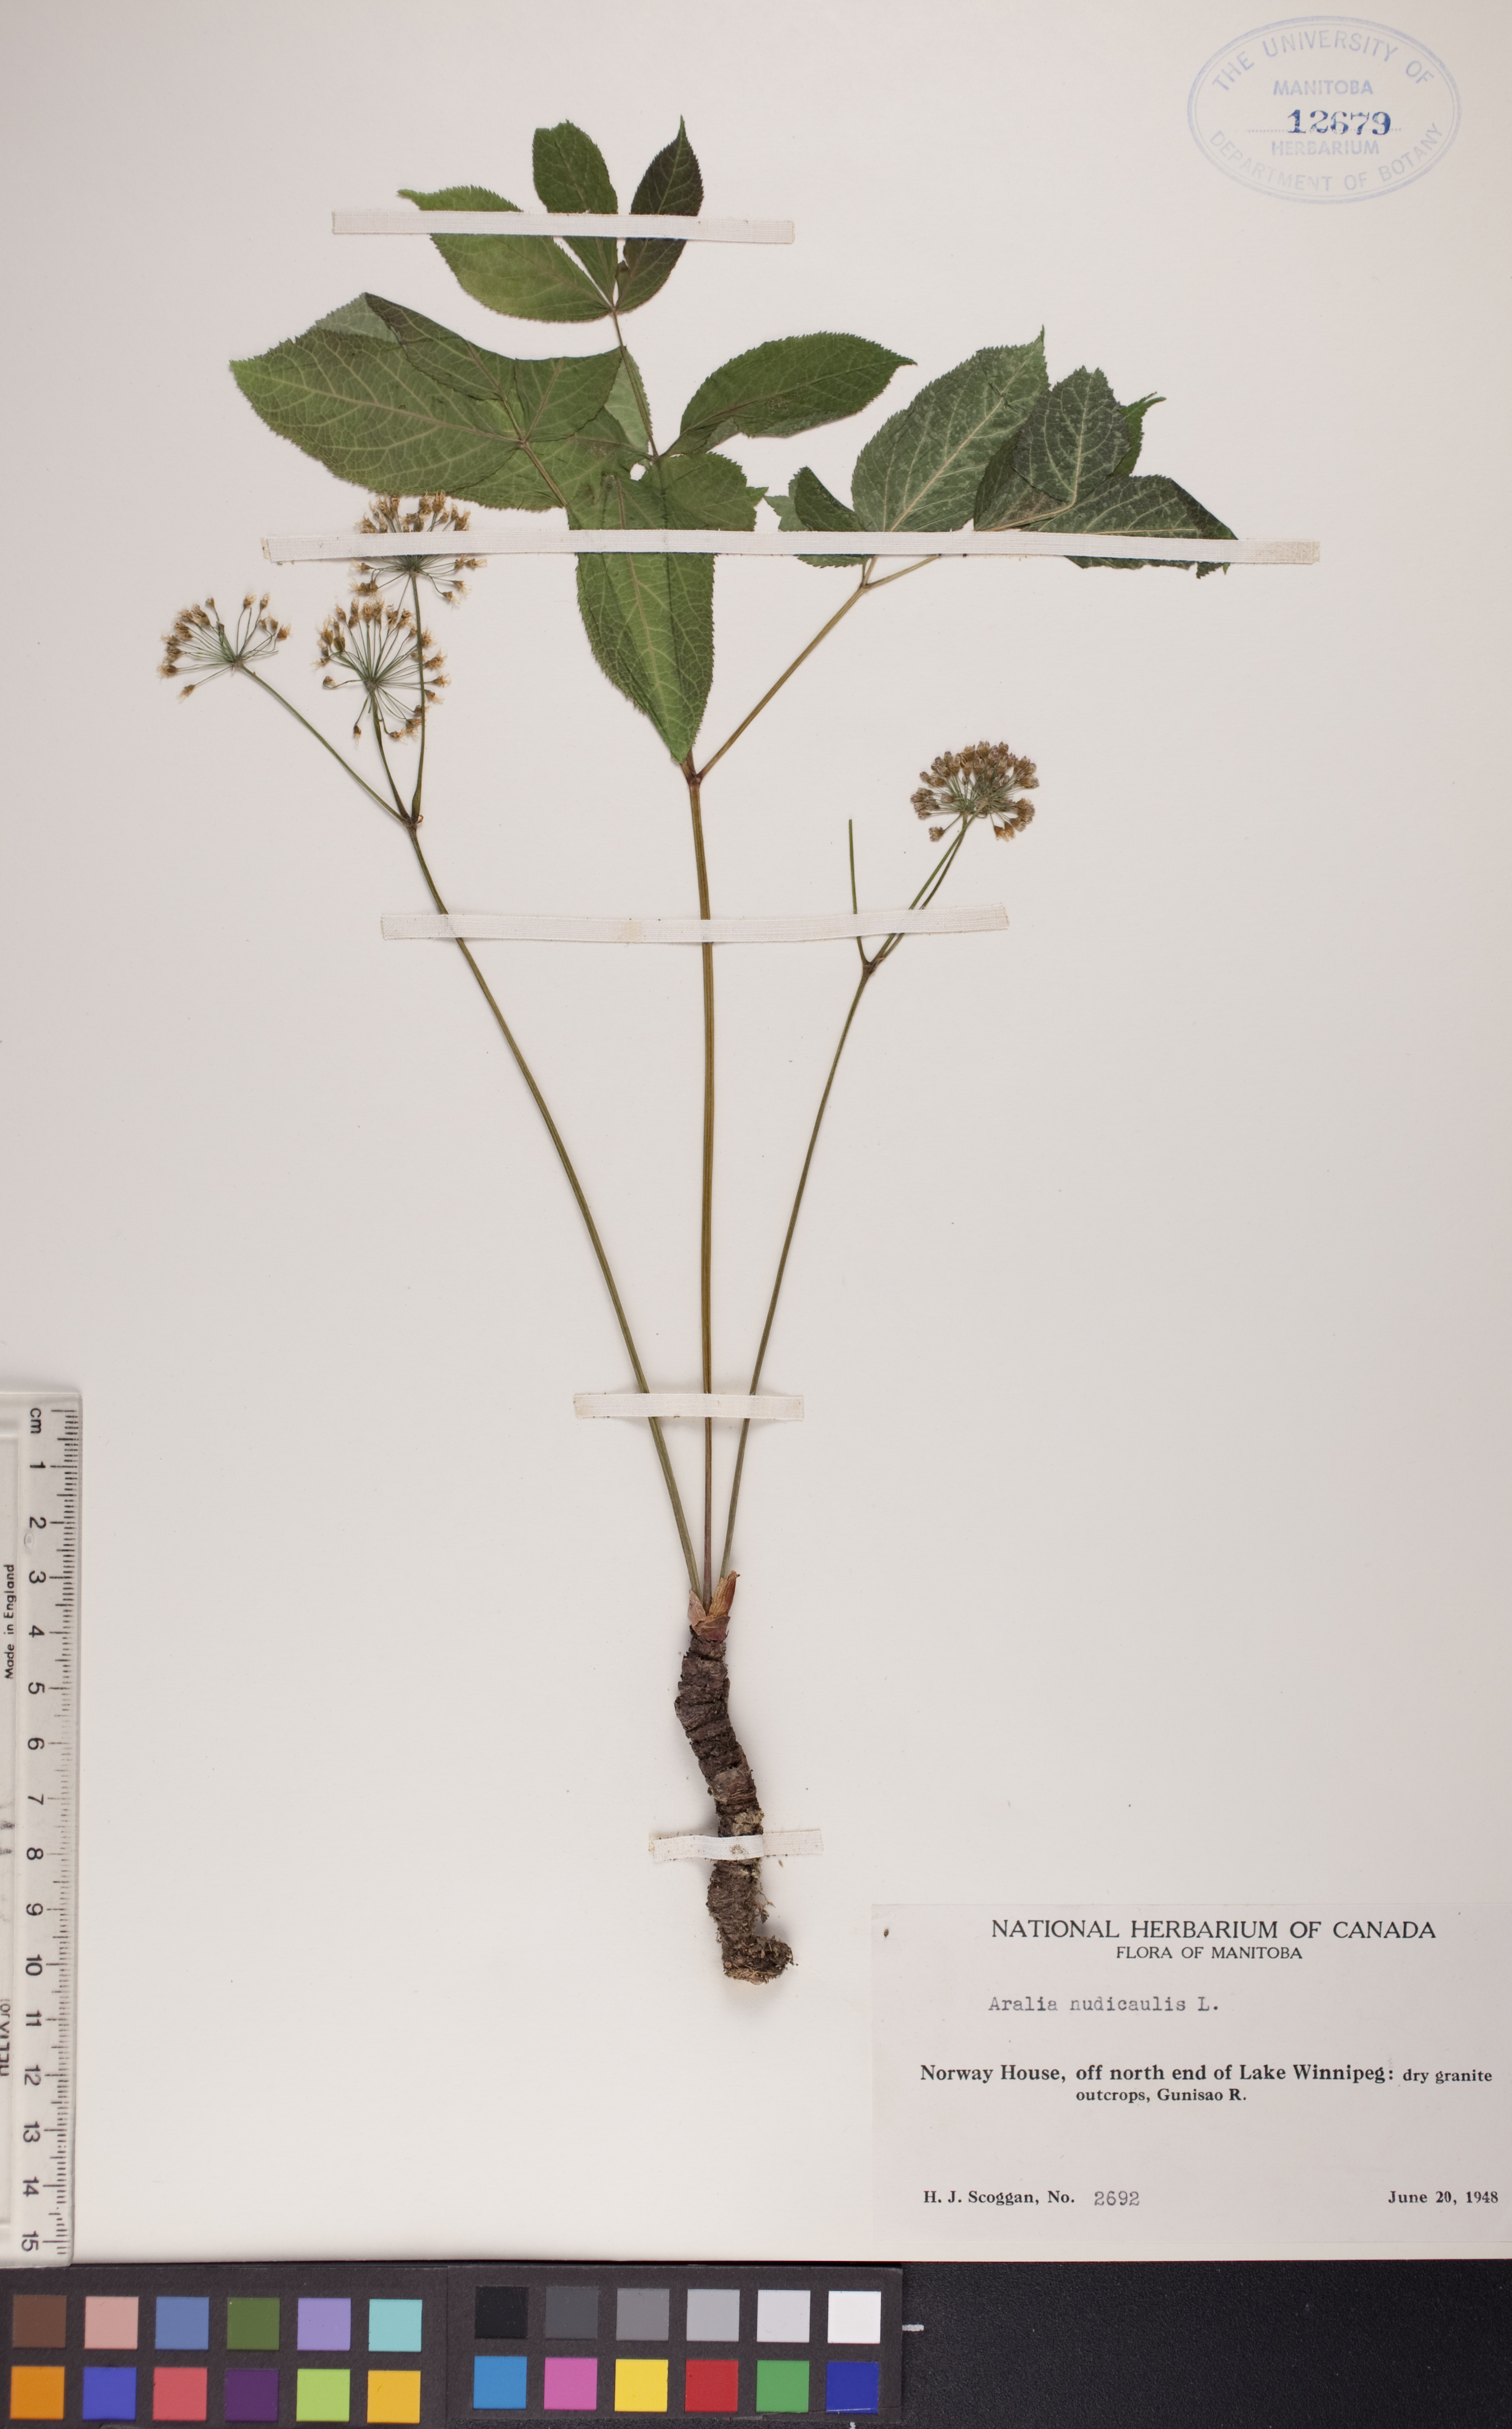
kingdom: Plantae
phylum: Tracheophyta
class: Magnoliopsida
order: Apiales
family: Araliaceae
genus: Aralia
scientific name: Aralia nudicaulis
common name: Wild sarsaparilla
